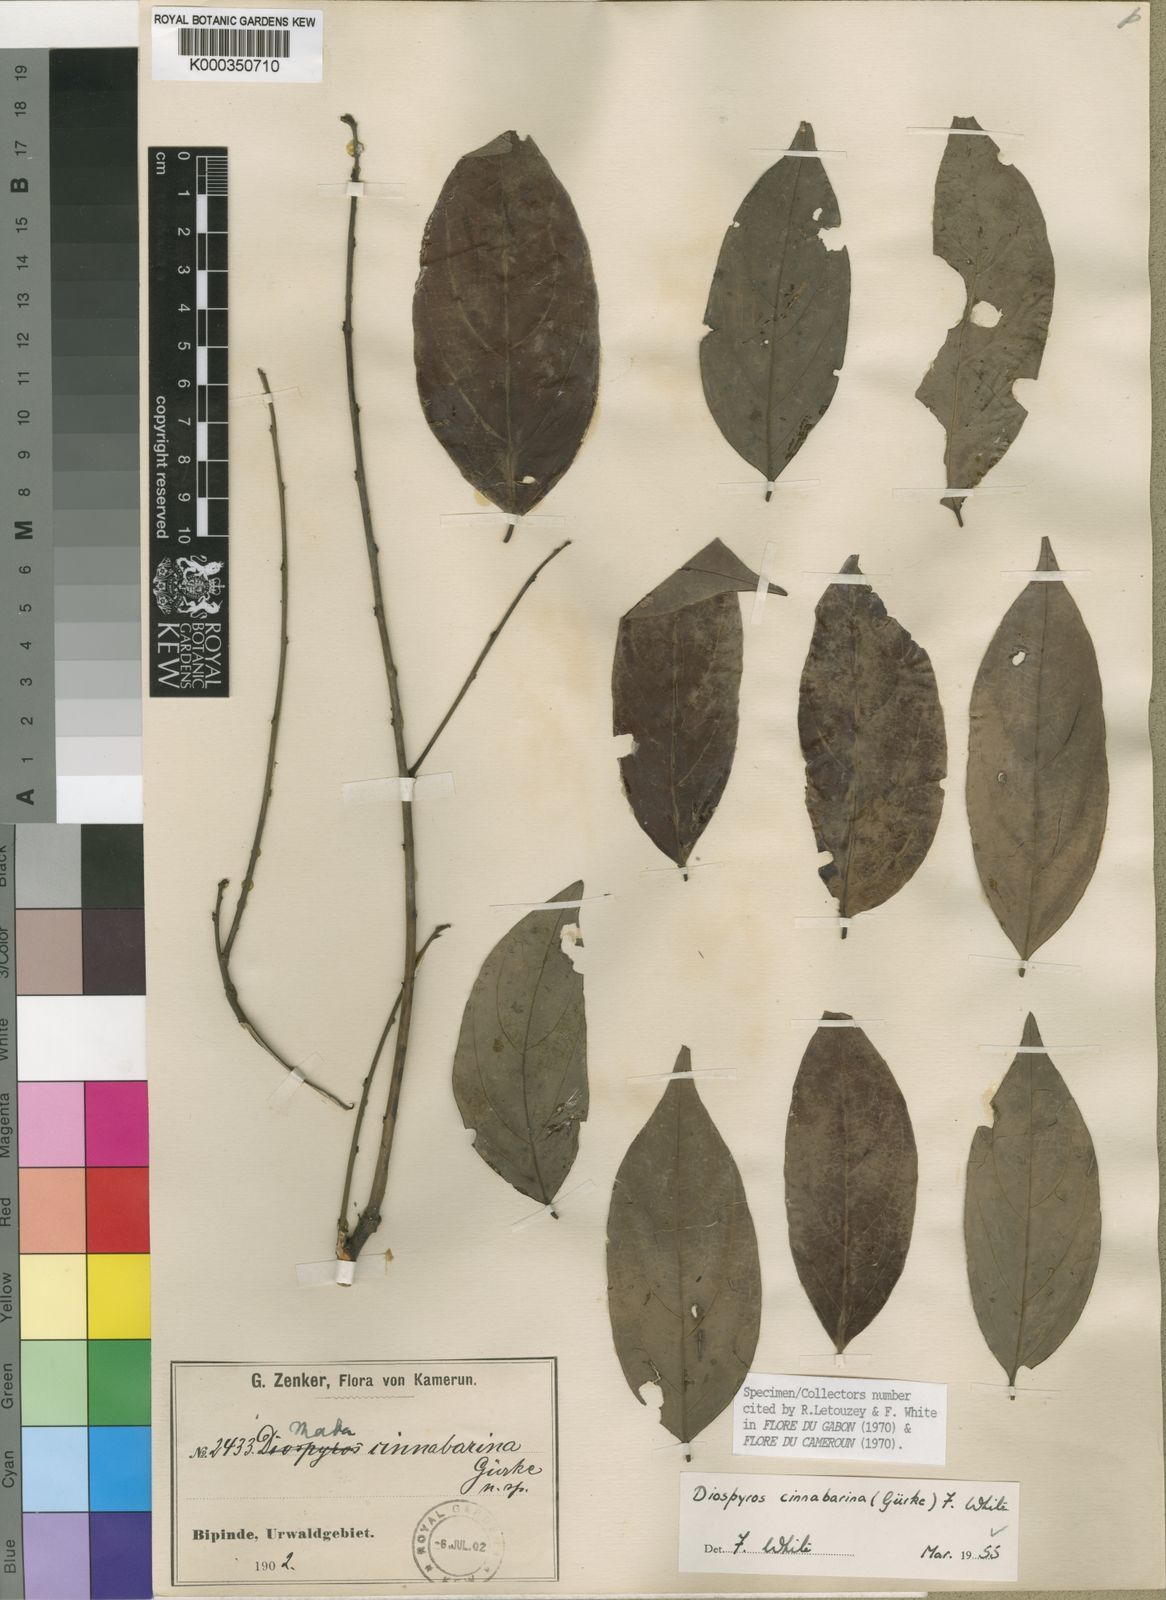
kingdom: Plantae
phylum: Tracheophyta
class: Magnoliopsida
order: Ericales
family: Ebenaceae
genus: Diospyros
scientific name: Diospyros
